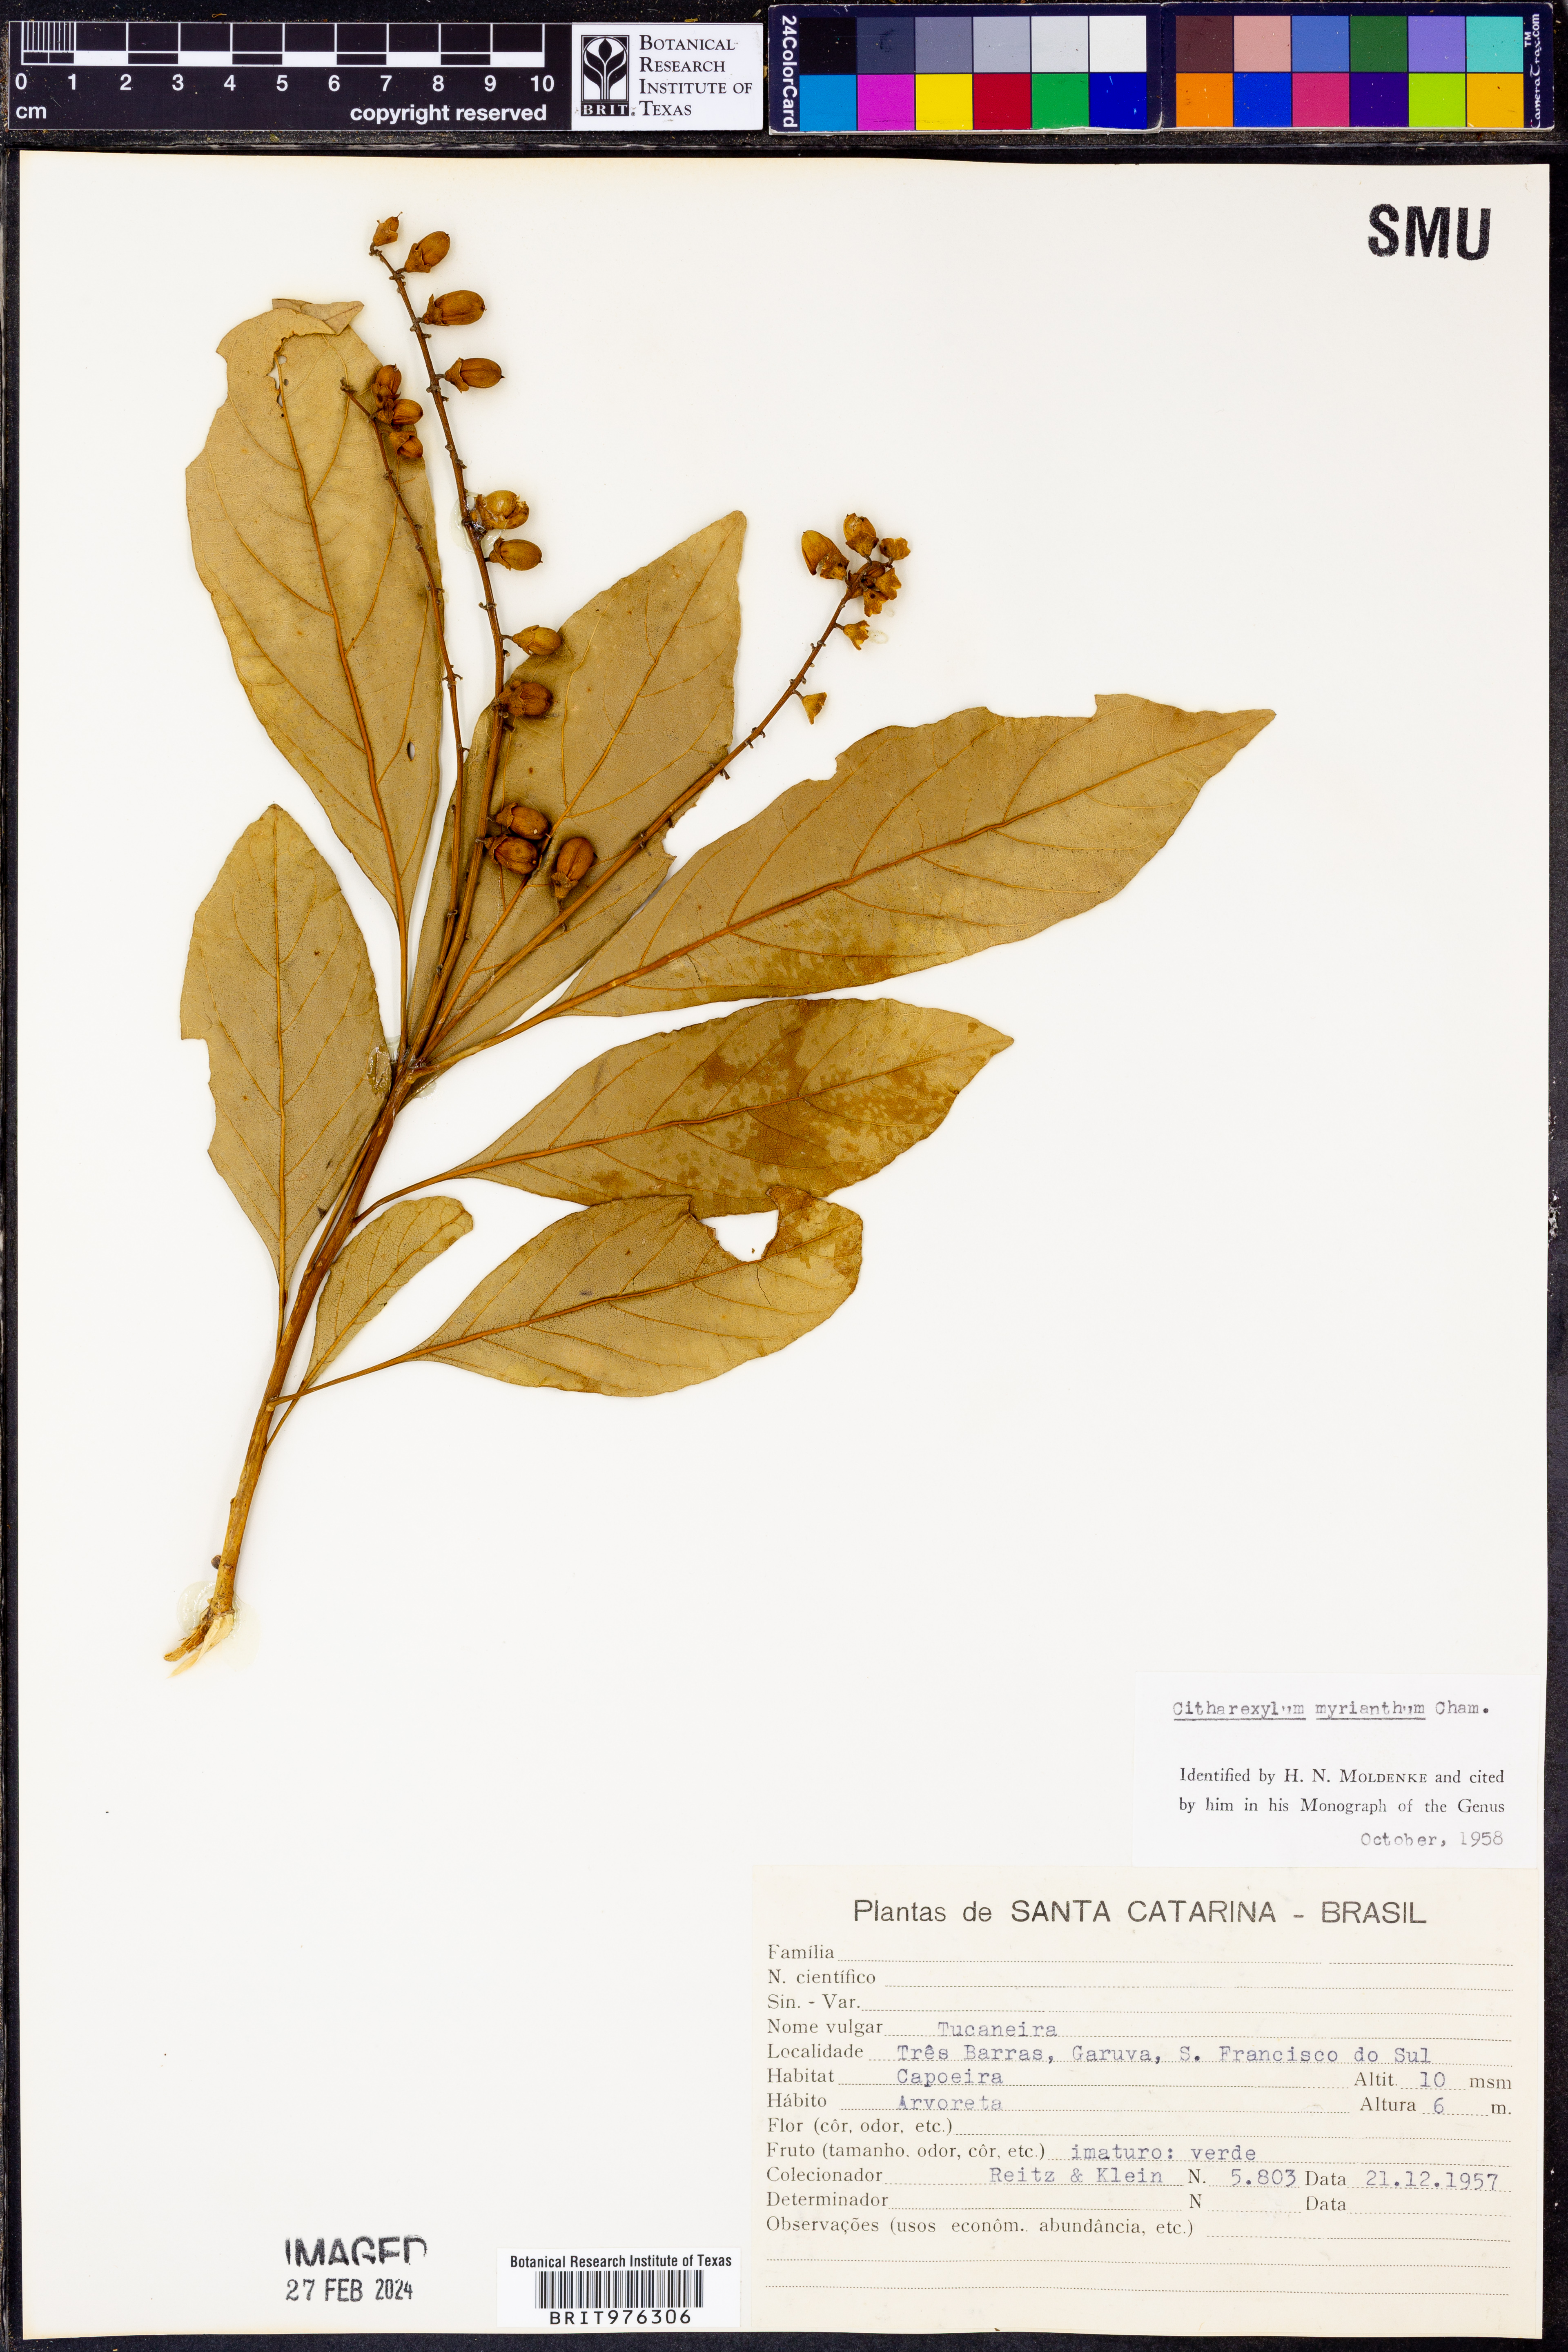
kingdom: Plantae
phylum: Tracheophyta
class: Magnoliopsida
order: Lamiales
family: Verbenaceae
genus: Citharexylum
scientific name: Citharexylum
